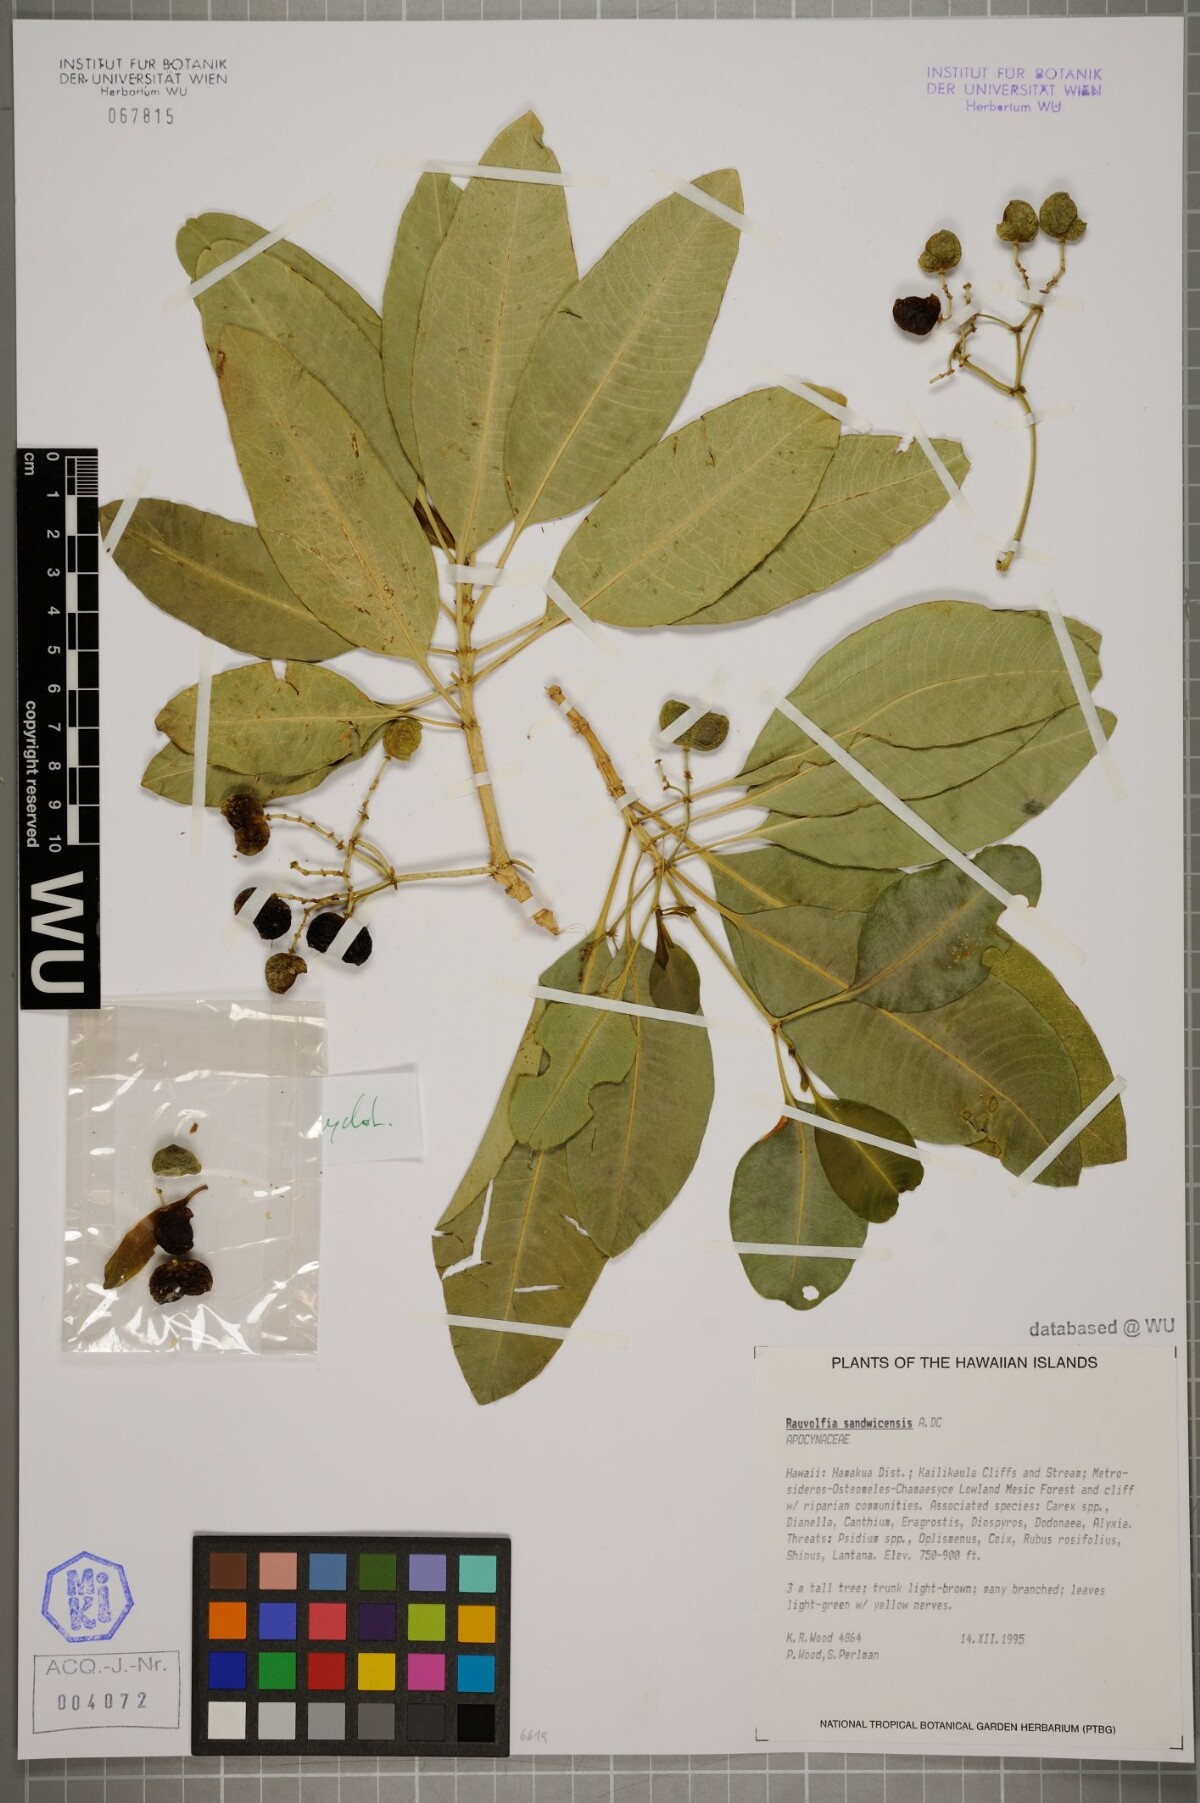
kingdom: Plantae
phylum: Tracheophyta
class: Magnoliopsida
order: Gentianales
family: Apocynaceae
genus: Rauvolfia
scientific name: Rauvolfia sandwicensis
